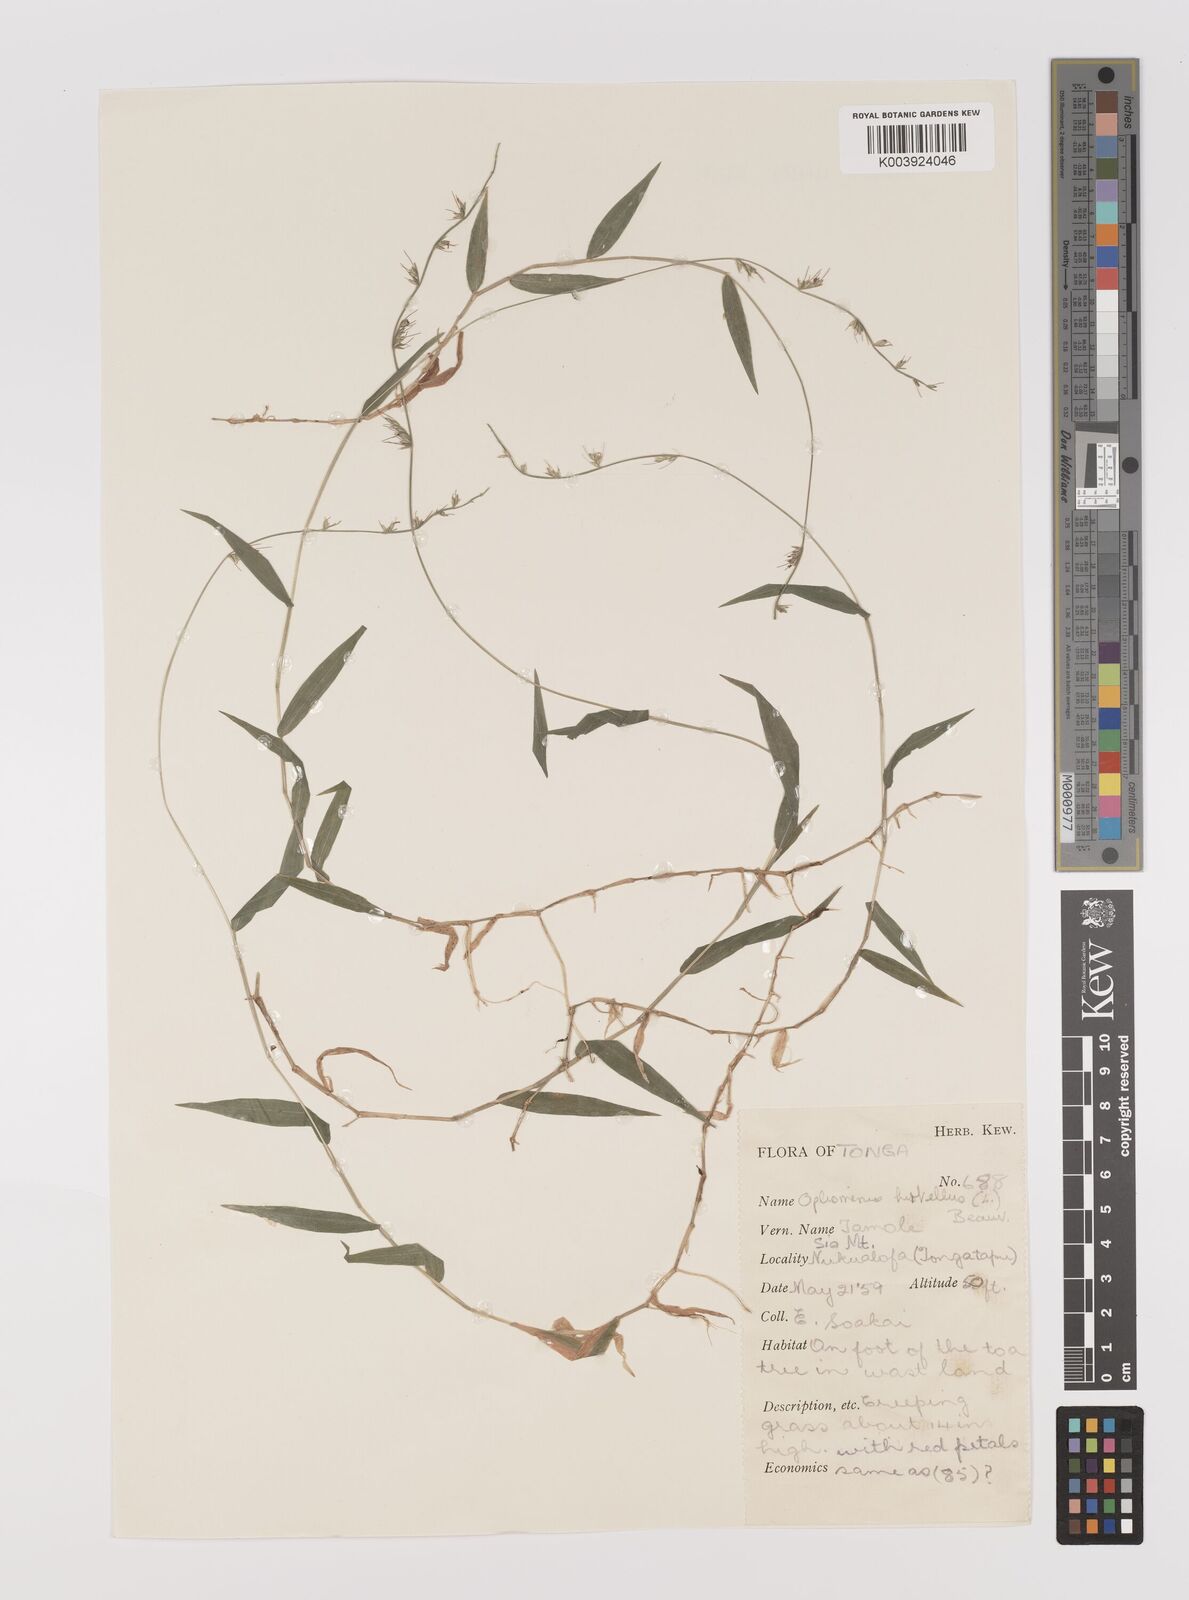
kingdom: Plantae
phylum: Tracheophyta
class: Liliopsida
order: Poales
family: Poaceae
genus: Oplismenus
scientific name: Oplismenus hirtellus
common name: Basketgrass
